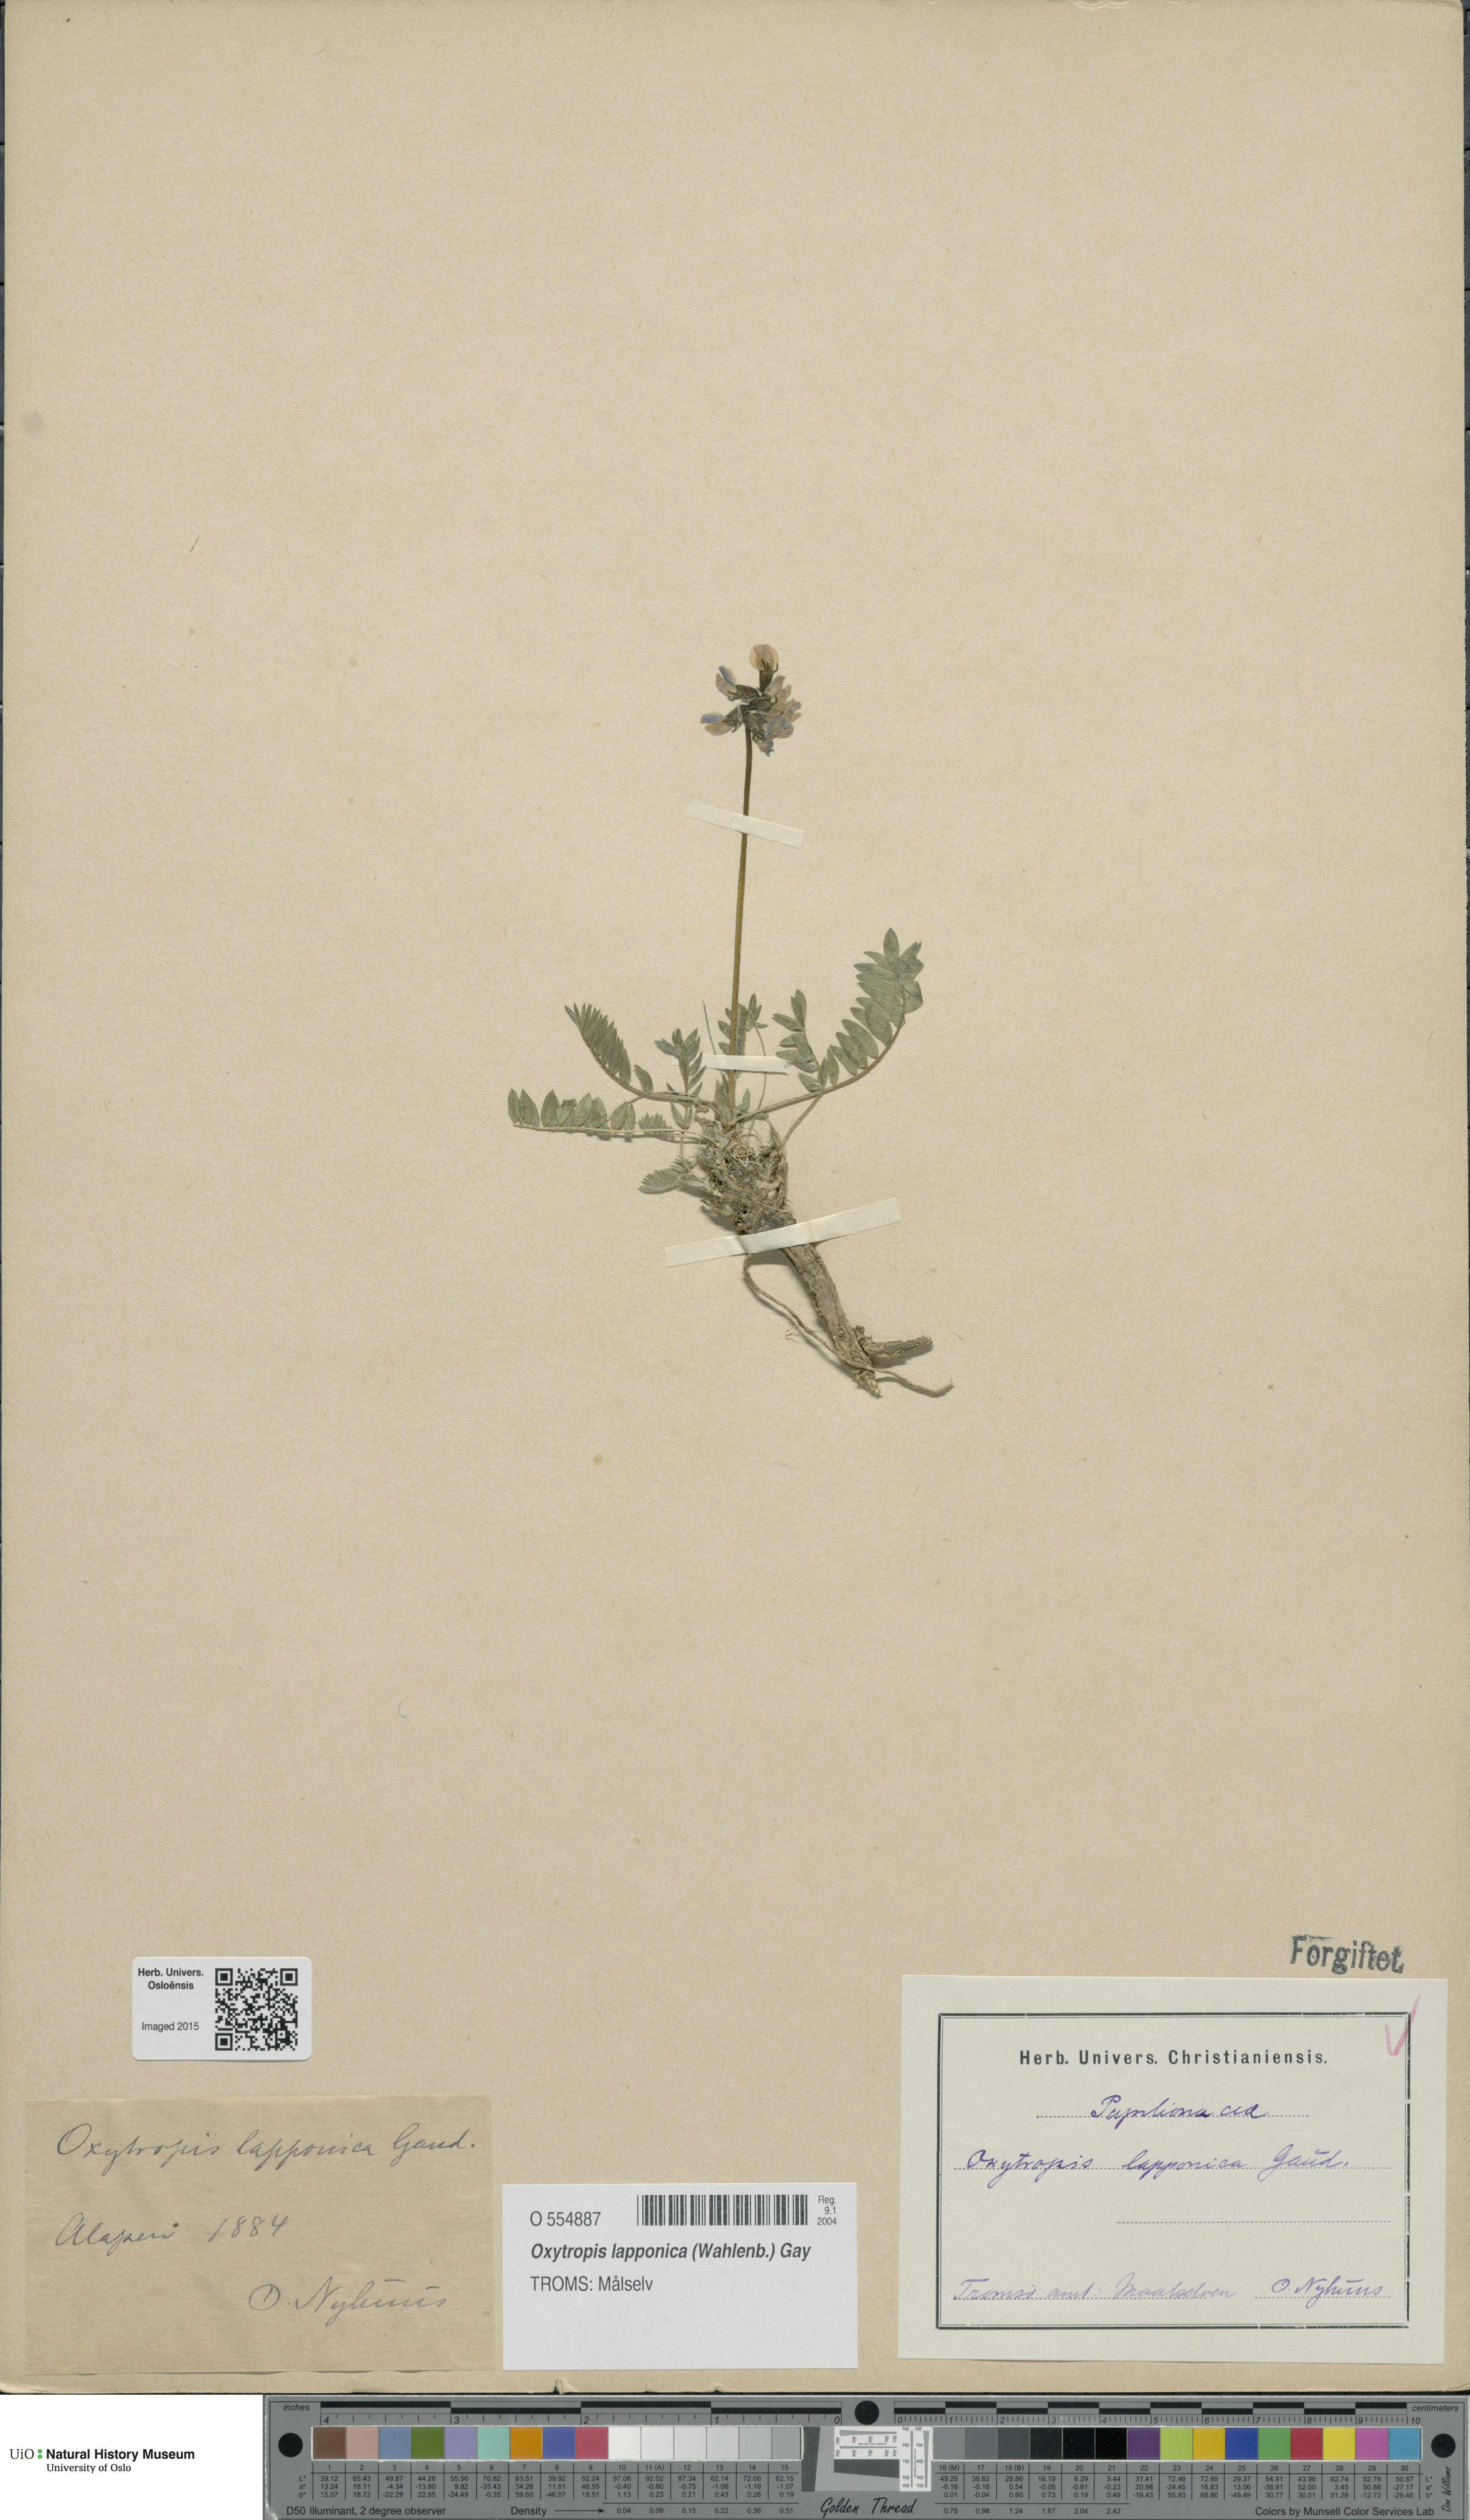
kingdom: Plantae
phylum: Tracheophyta
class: Magnoliopsida
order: Fabales
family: Fabaceae
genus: Oxytropis
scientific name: Oxytropis lapponica
